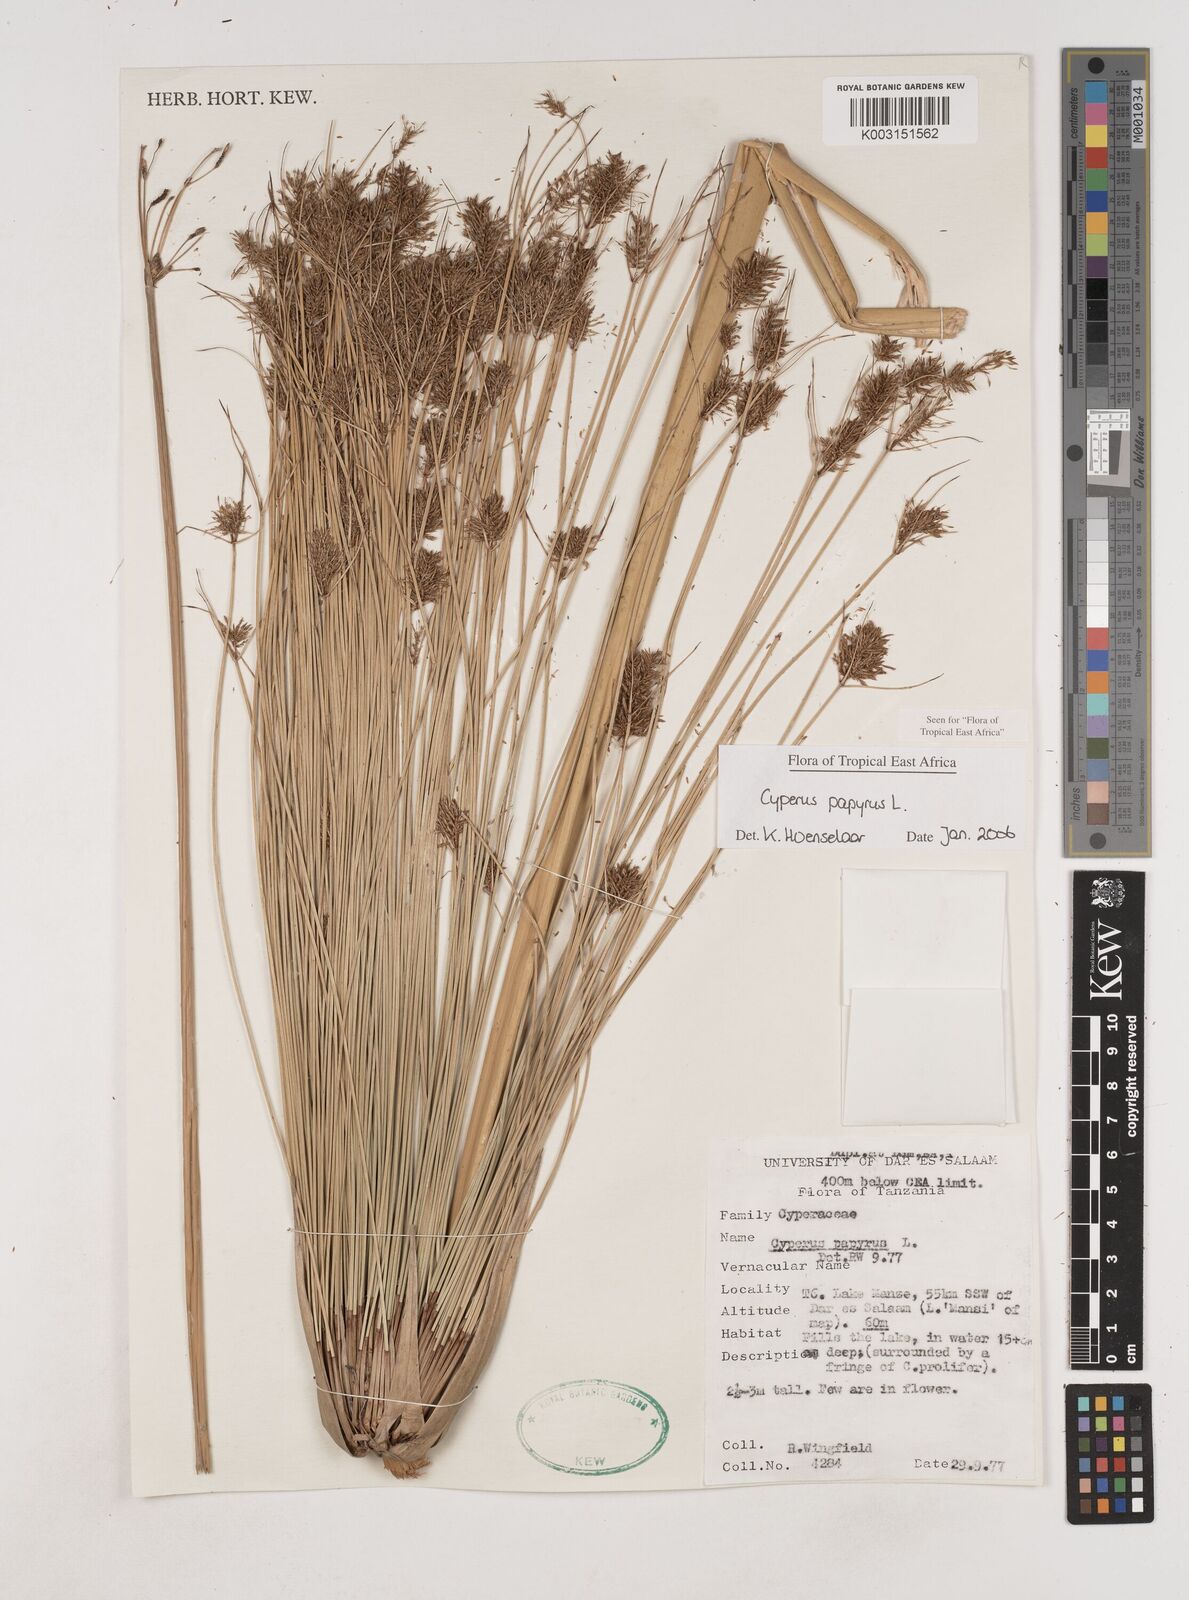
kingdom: Plantae
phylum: Tracheophyta
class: Liliopsida
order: Poales
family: Cyperaceae
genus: Cyperus
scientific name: Cyperus papyrus
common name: Papyrus
